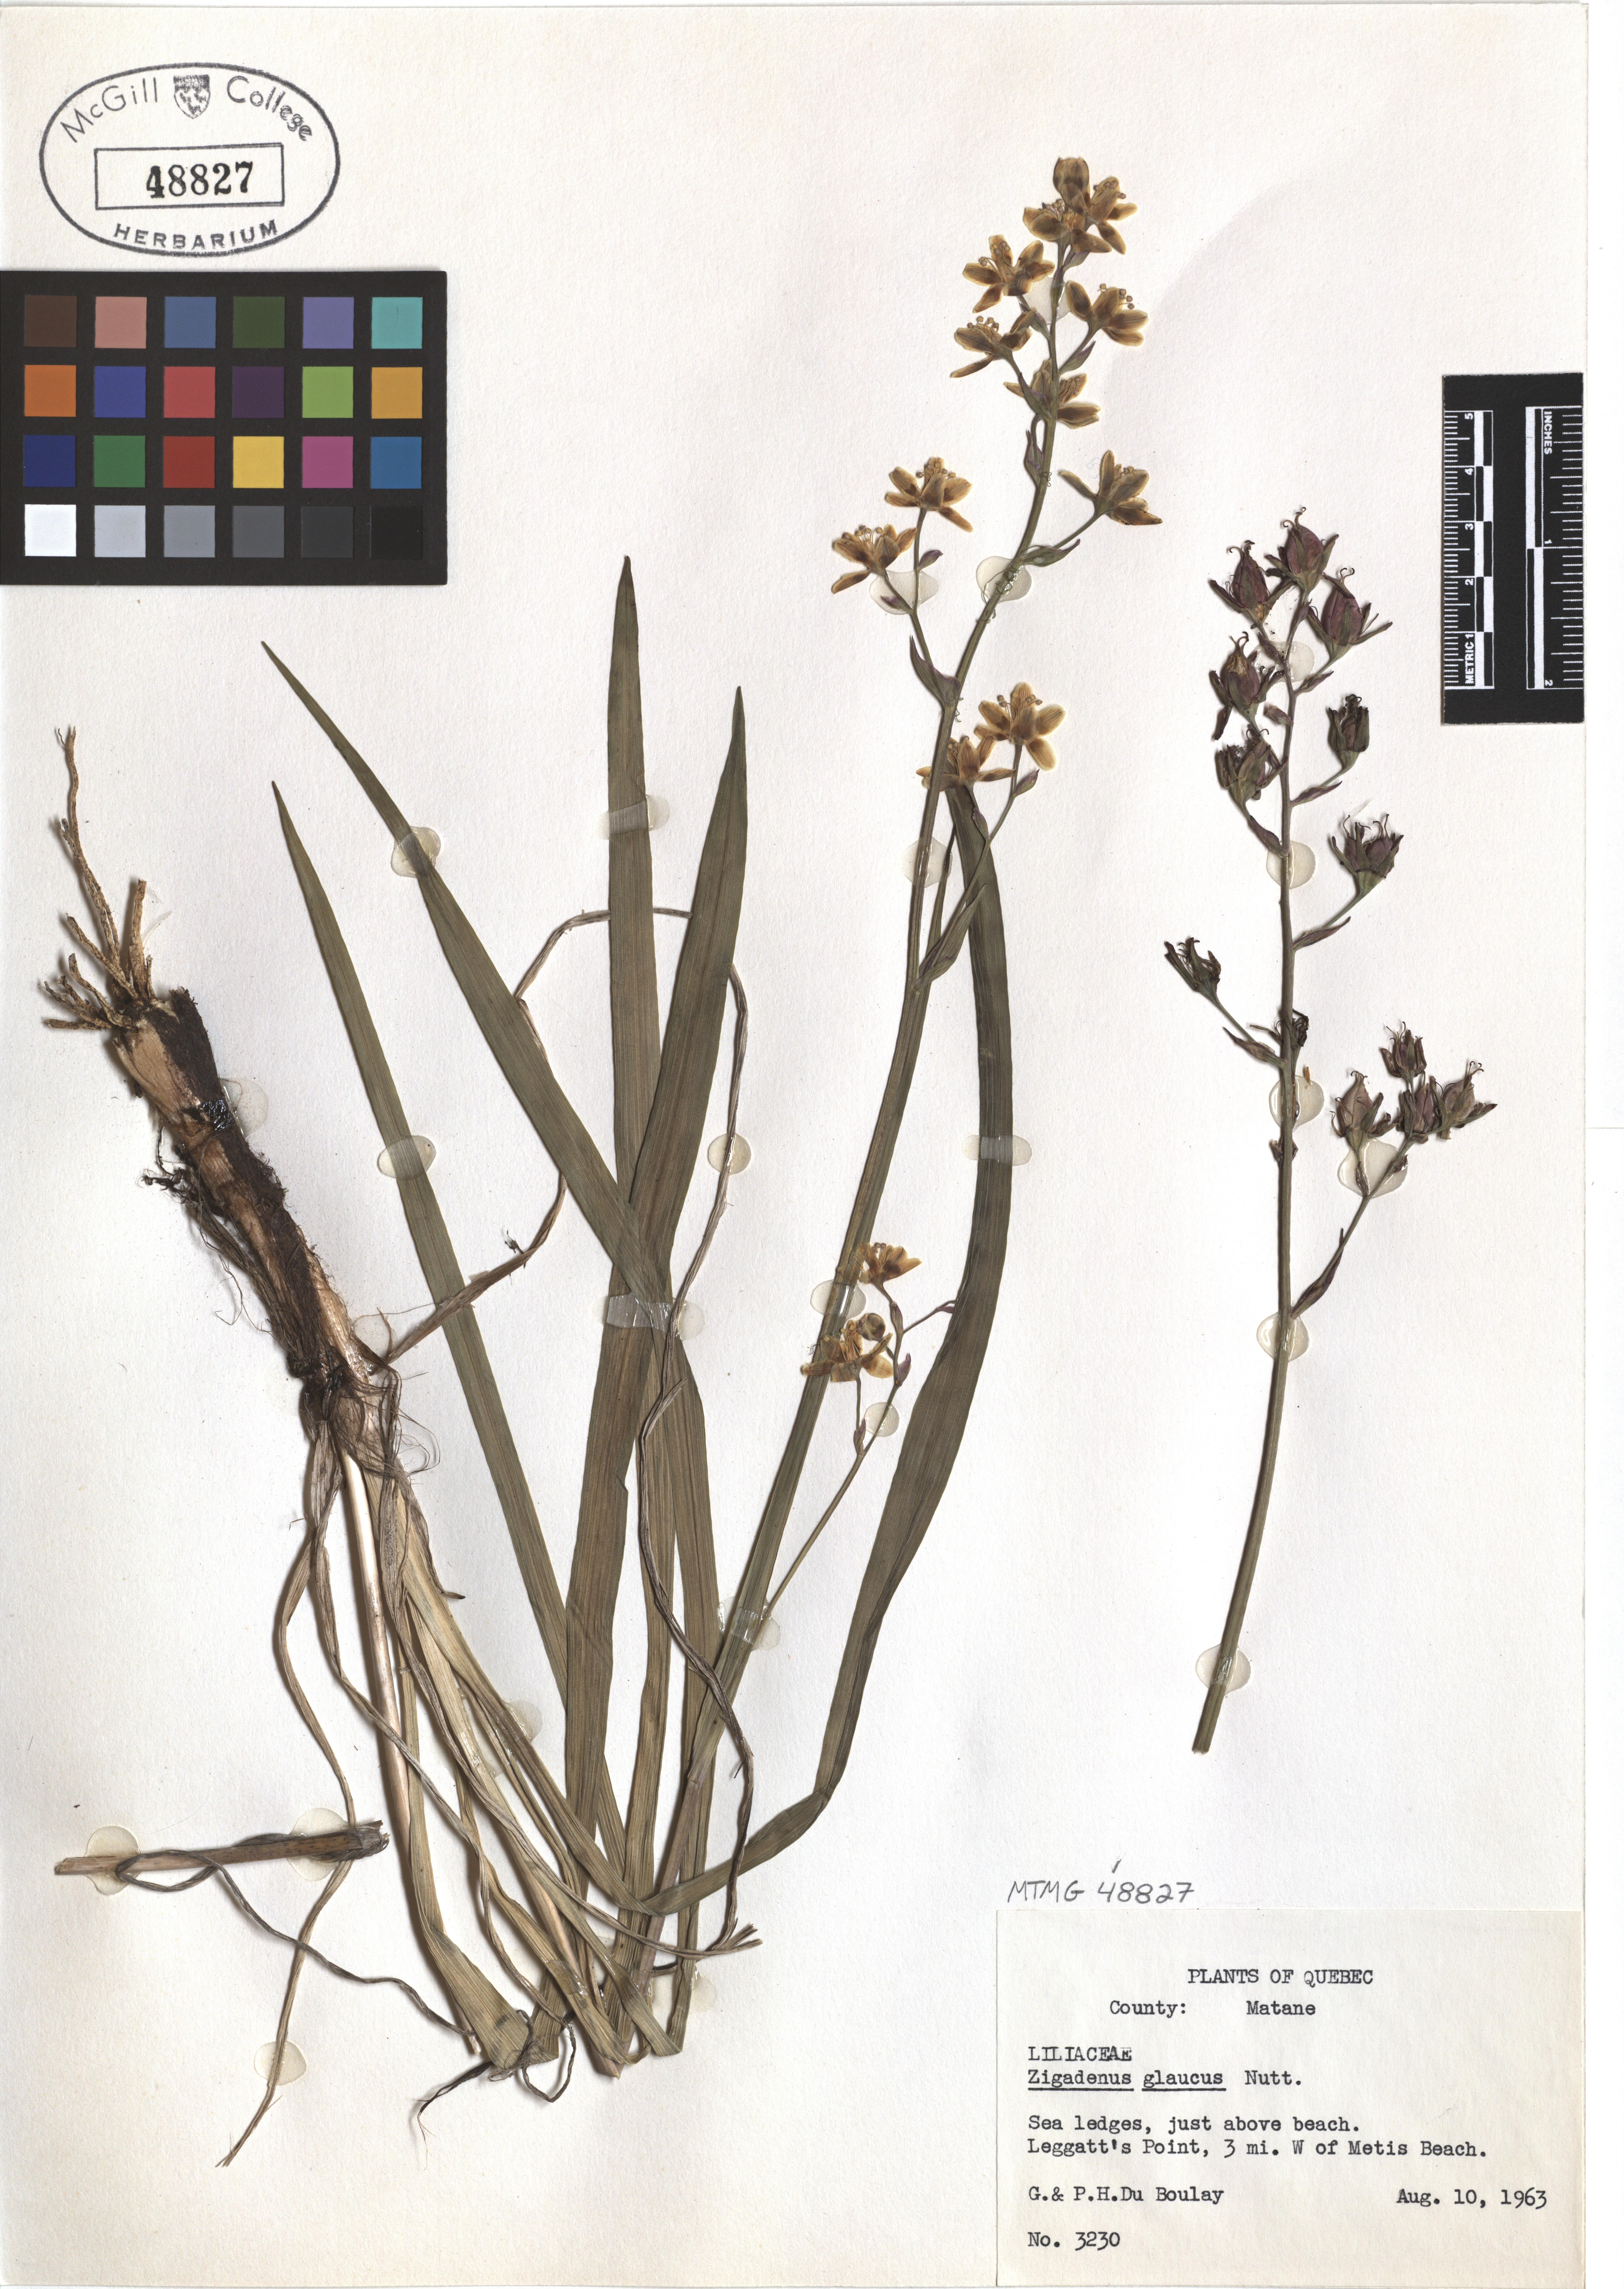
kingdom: Plantae
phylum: Tracheophyta
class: Liliopsida
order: Liliales
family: Melanthiaceae
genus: Anticlea
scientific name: Anticlea elegans
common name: Mountain death camas
